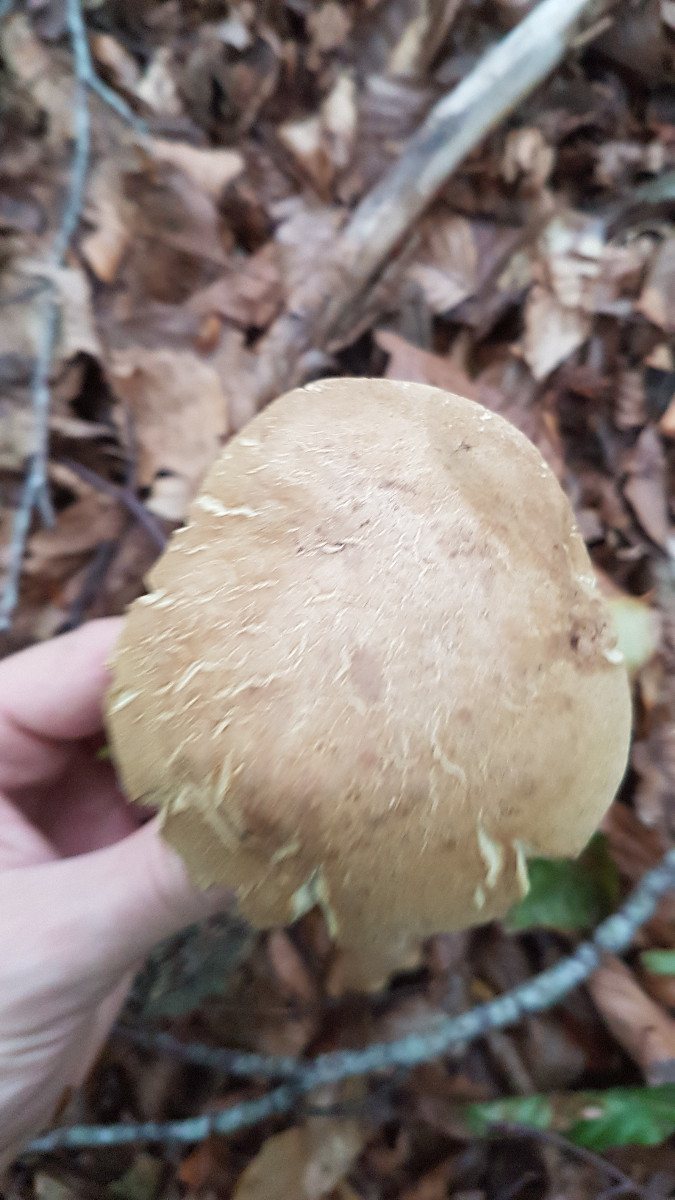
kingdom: Fungi
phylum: Basidiomycota
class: Agaricomycetes
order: Boletales
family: Boletaceae
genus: Caloboletus
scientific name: Caloboletus radicans
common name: rod-rørhat
